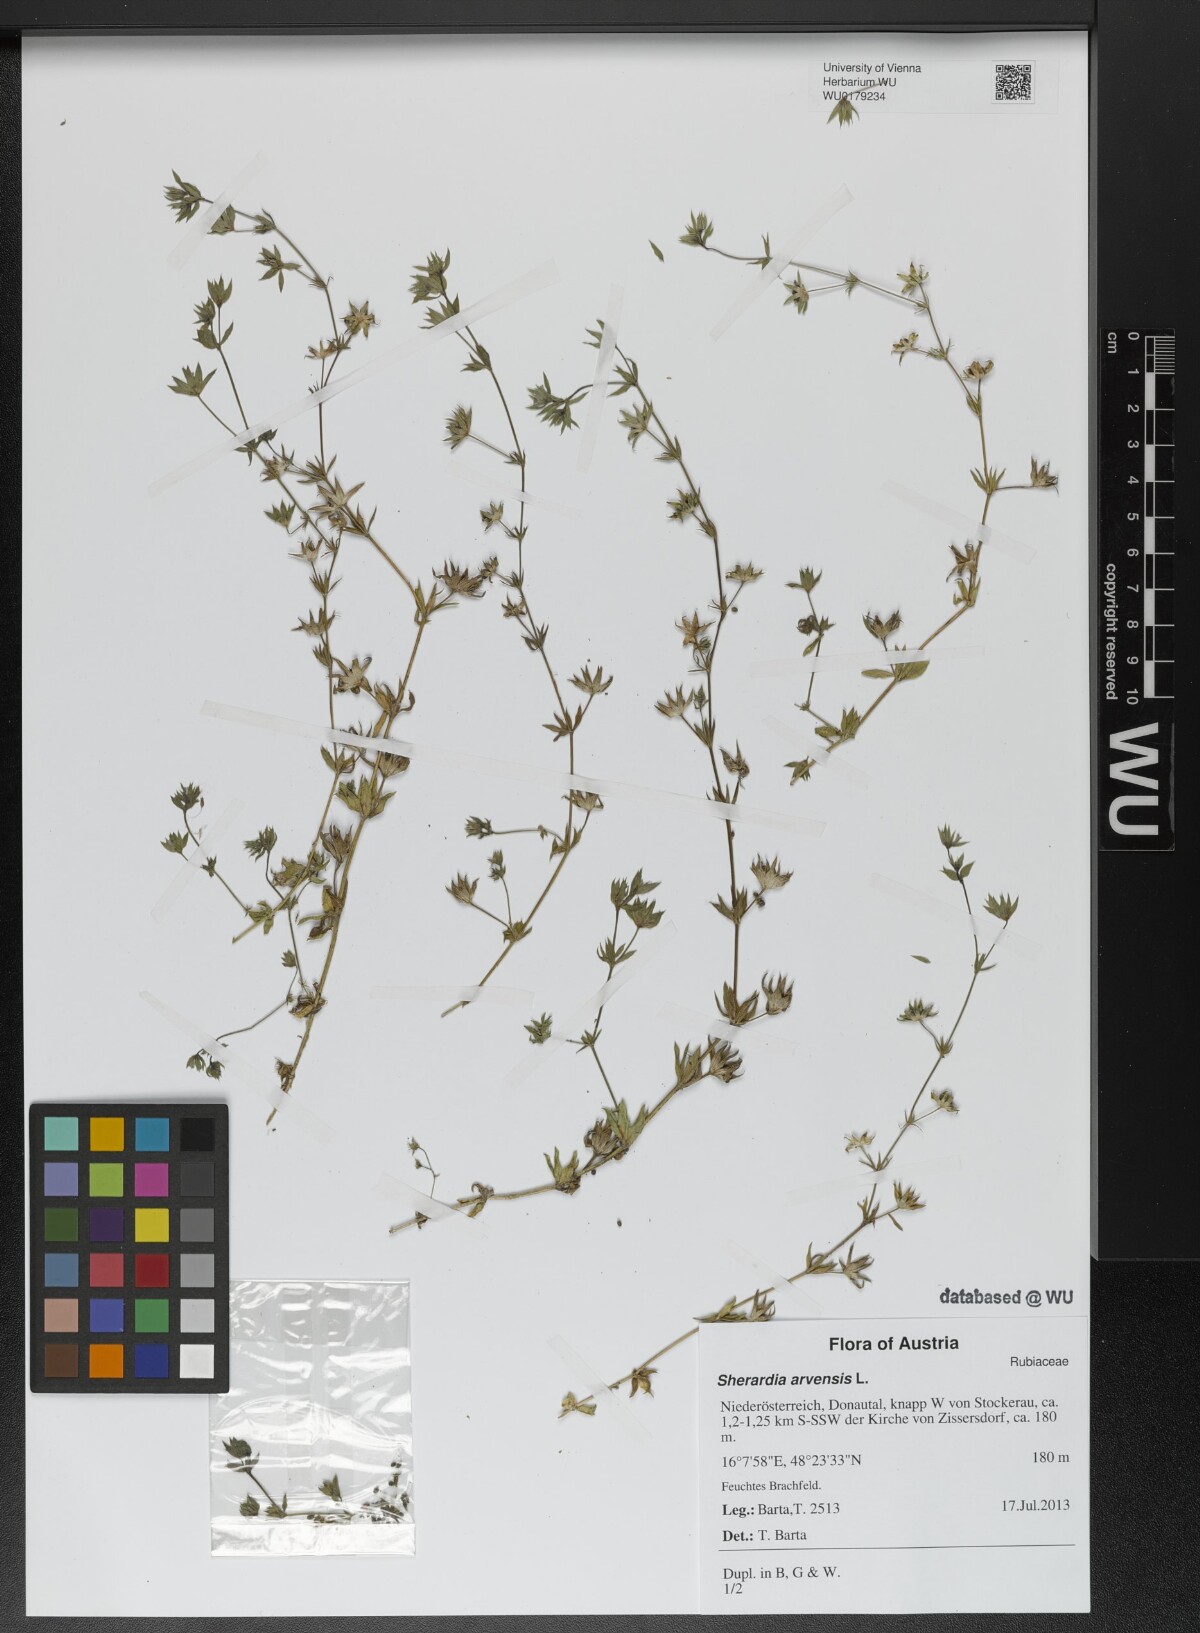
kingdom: Plantae
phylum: Tracheophyta
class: Magnoliopsida
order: Gentianales
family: Rubiaceae
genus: Sherardia
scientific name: Sherardia arvensis
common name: Field madder
